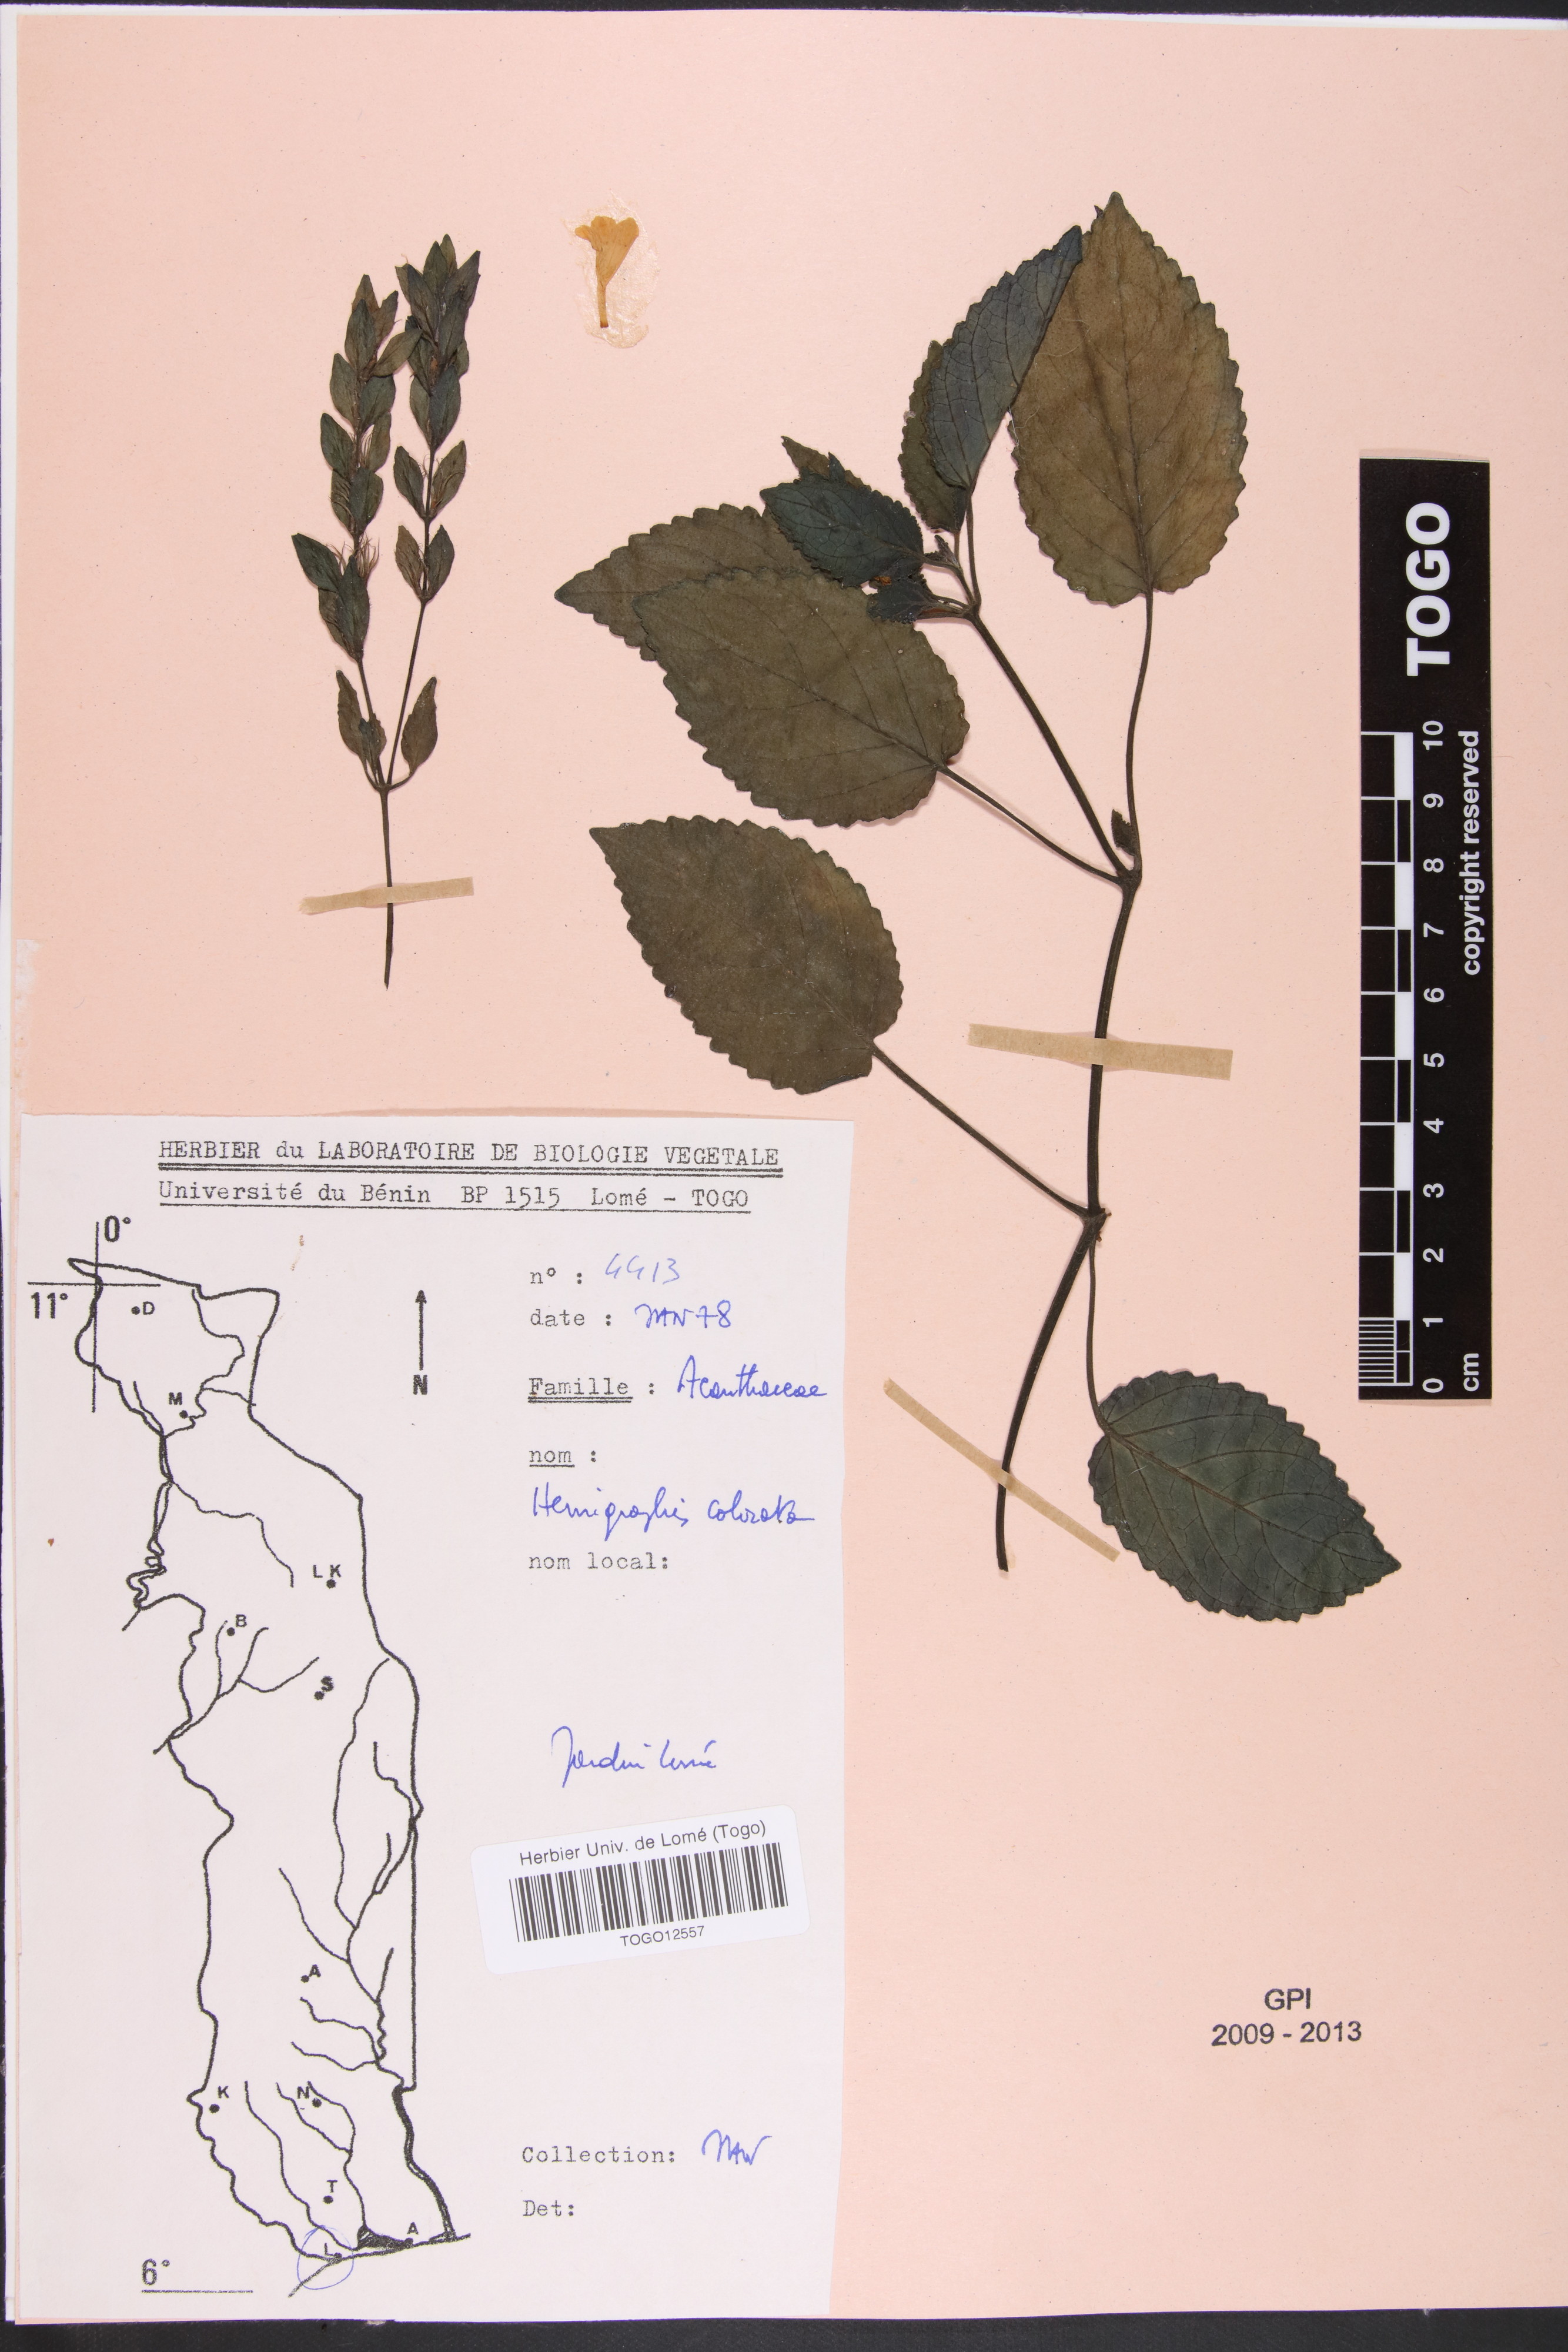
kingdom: Plantae
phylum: Tracheophyta
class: Magnoliopsida
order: Lamiales
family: Acanthaceae
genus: Strobilanthes
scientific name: Strobilanthes alternata
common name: Red ivy
